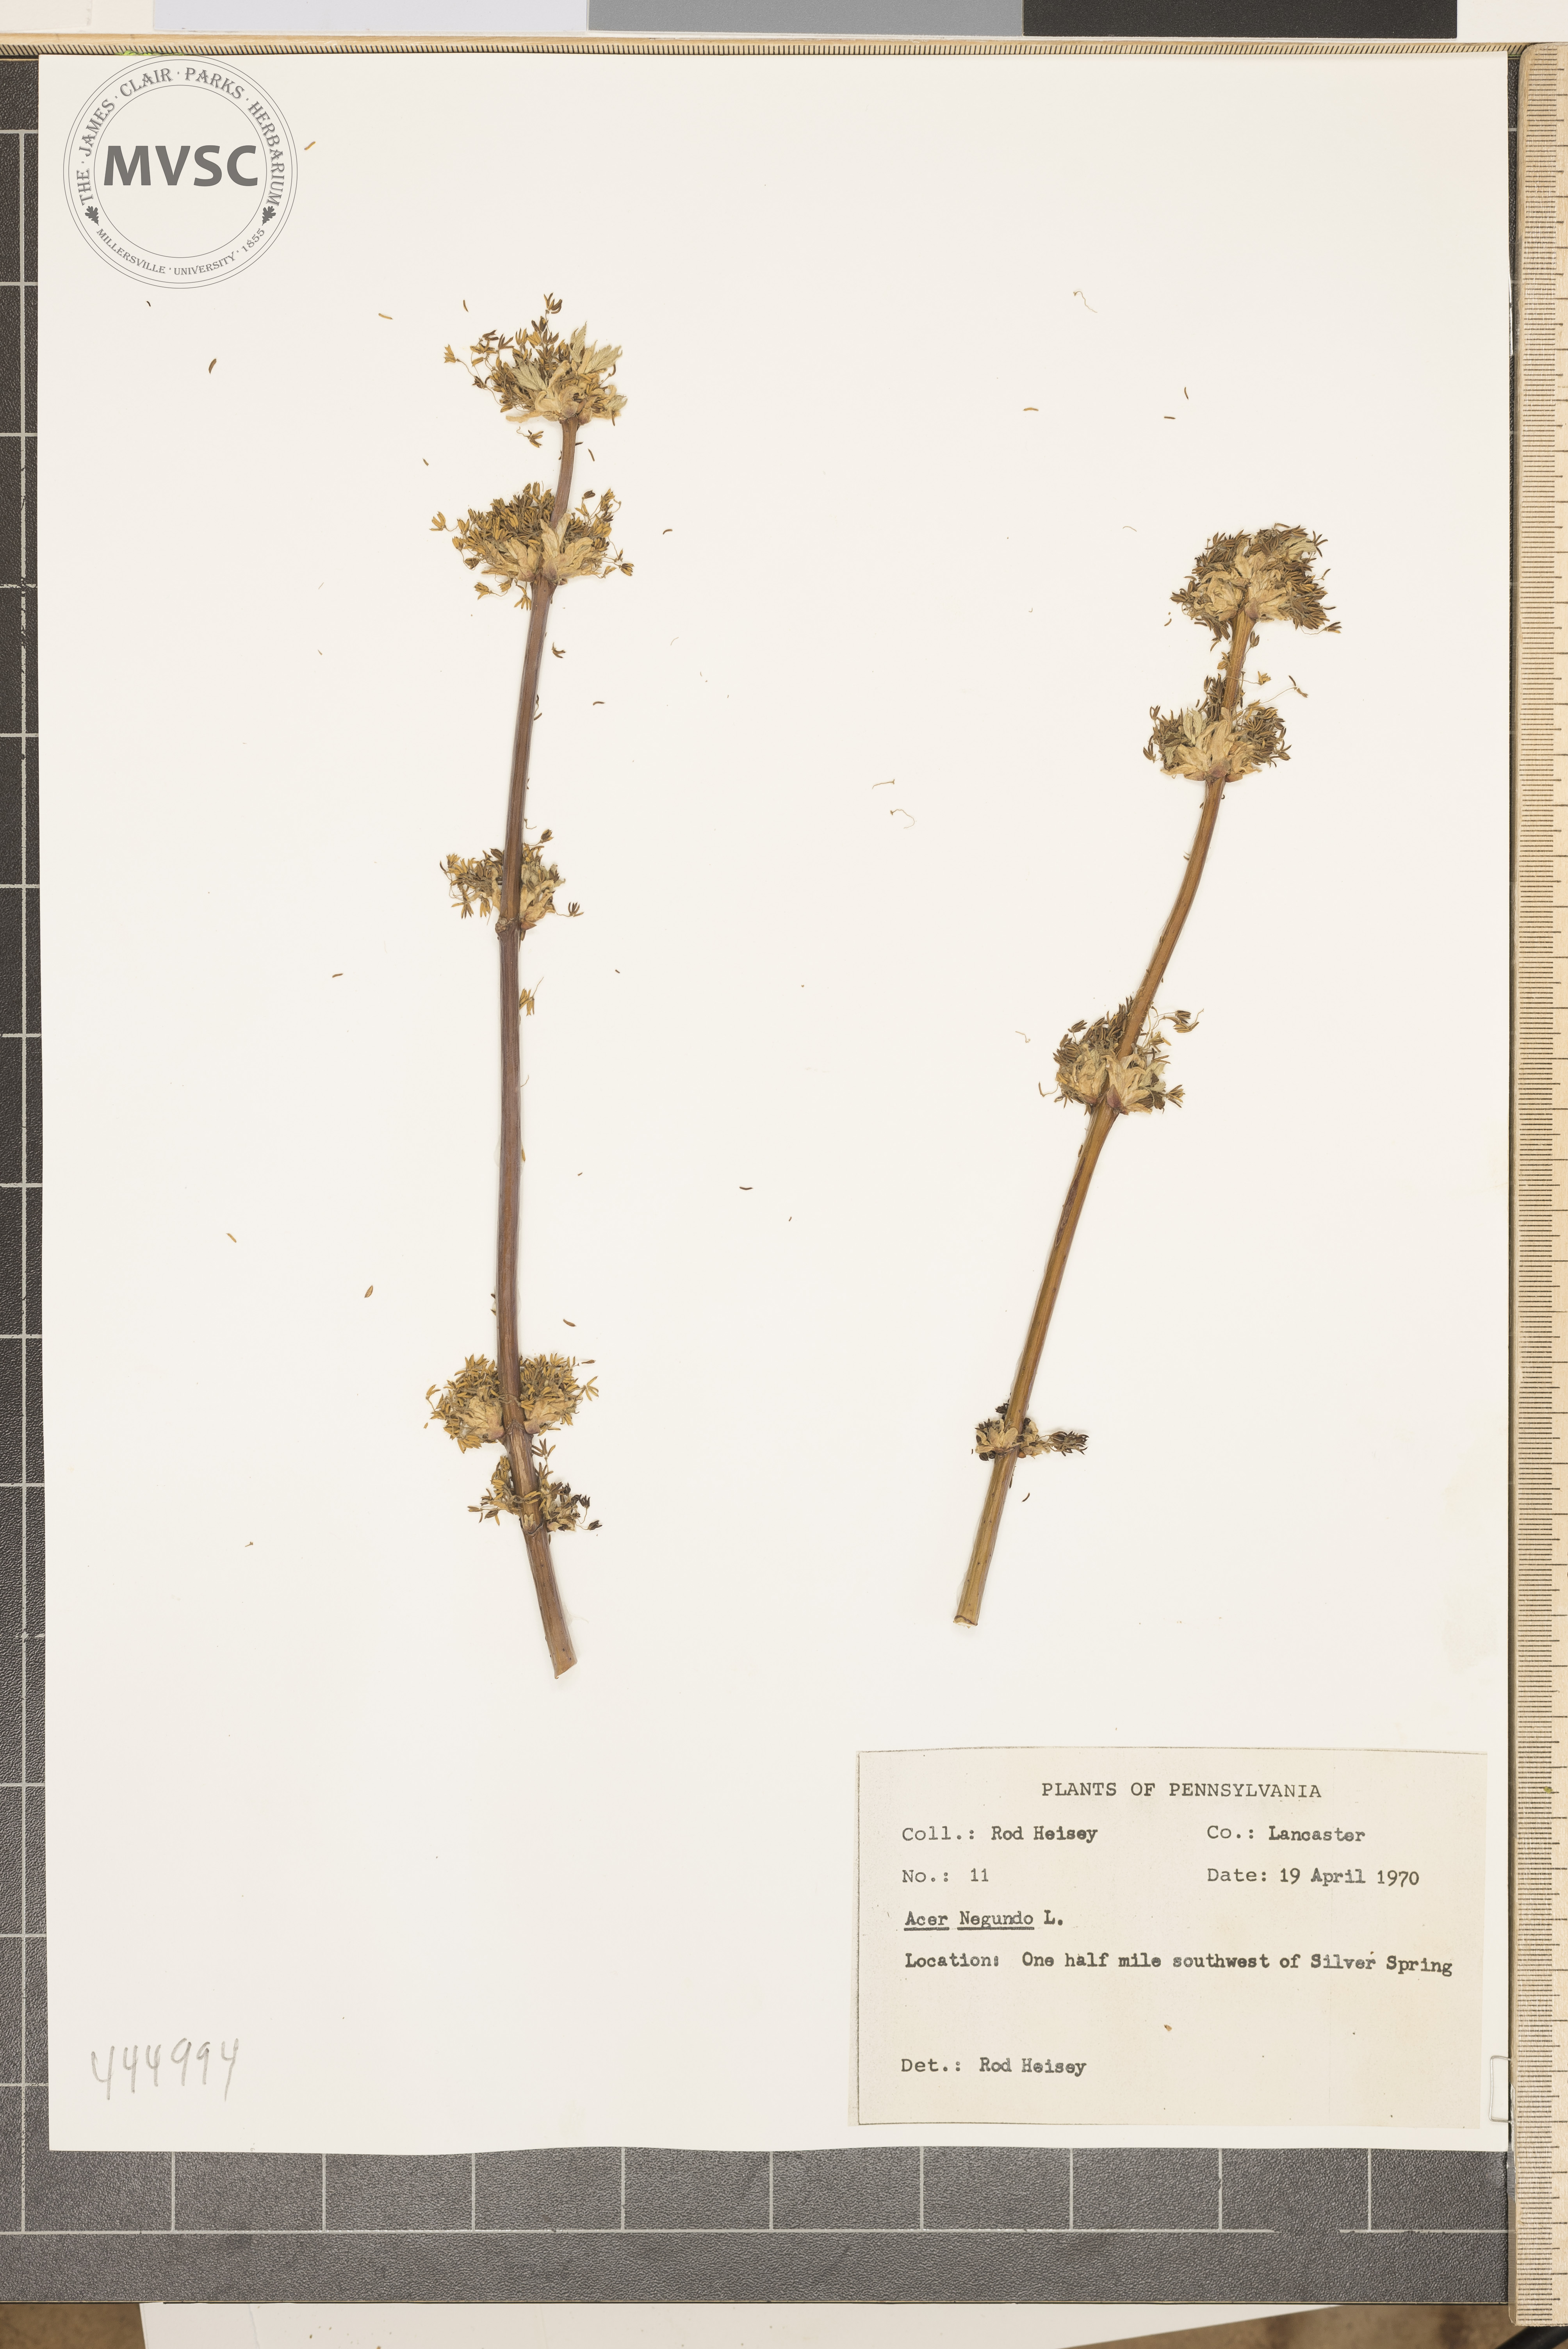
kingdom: Plantae
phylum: Tracheophyta
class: Magnoliopsida
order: Sapindales
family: Sapindaceae
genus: Acer
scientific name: Acer negundo
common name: Ashleaf maple
